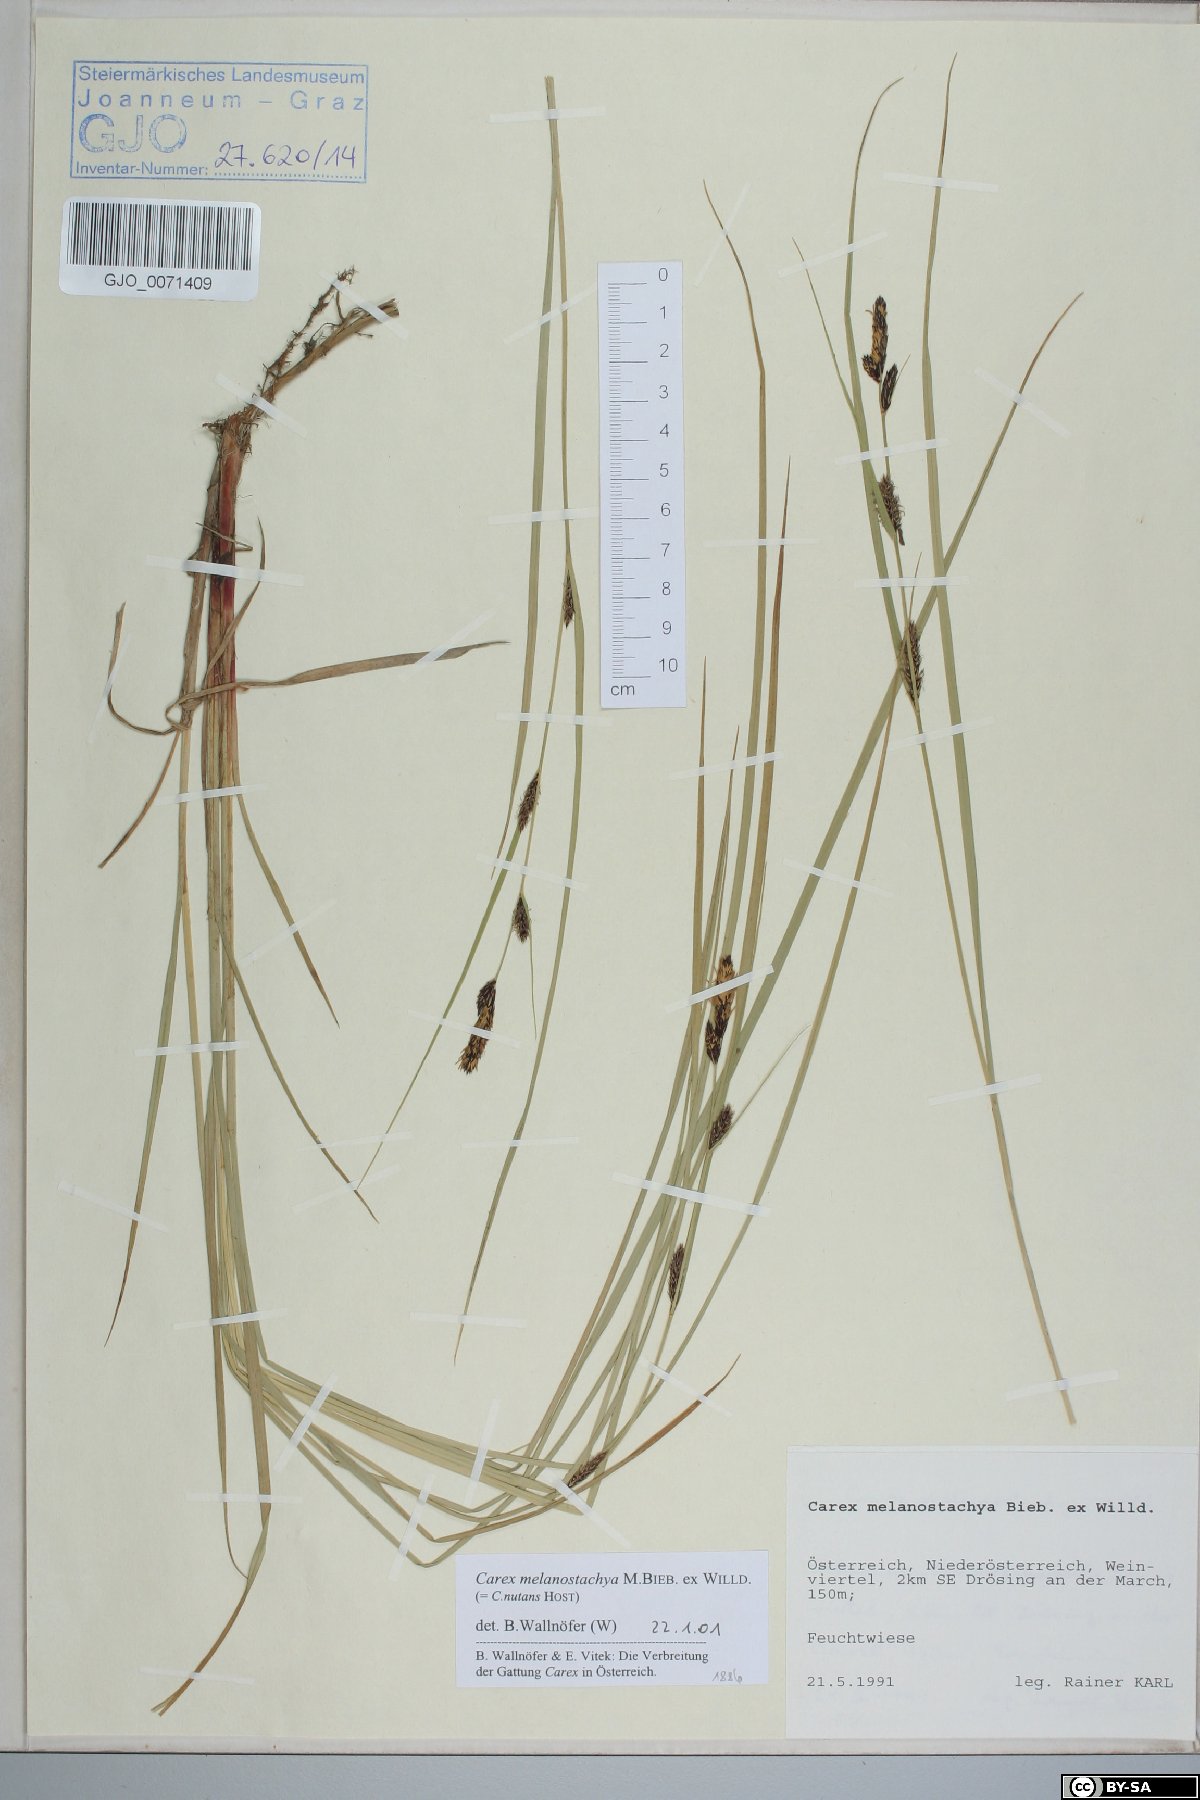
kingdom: Plantae
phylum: Tracheophyta
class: Liliopsida
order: Poales
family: Cyperaceae
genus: Carex
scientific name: Carex melanostachya
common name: Black-spiked sedge
